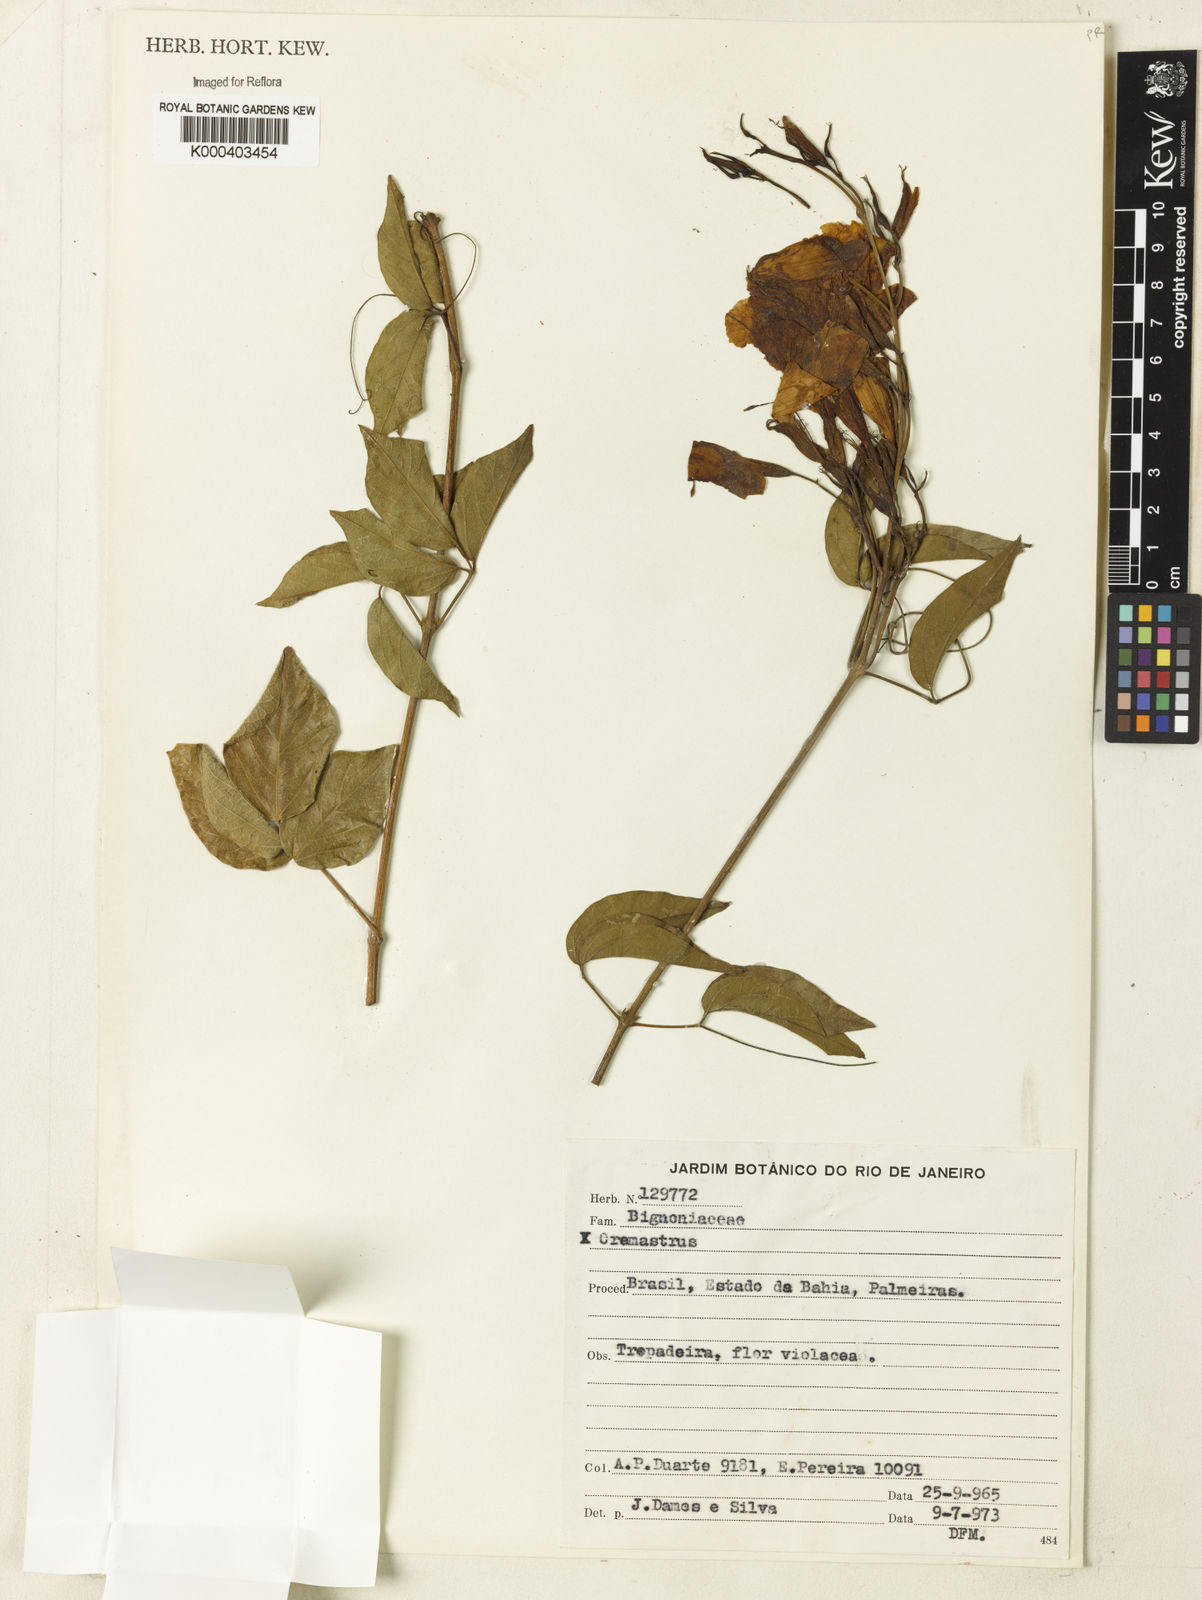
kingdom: Plantae
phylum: Tracheophyta
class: Magnoliopsida
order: Rosales
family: Rhamnaceae
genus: Arrabidaea
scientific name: Arrabidaea
